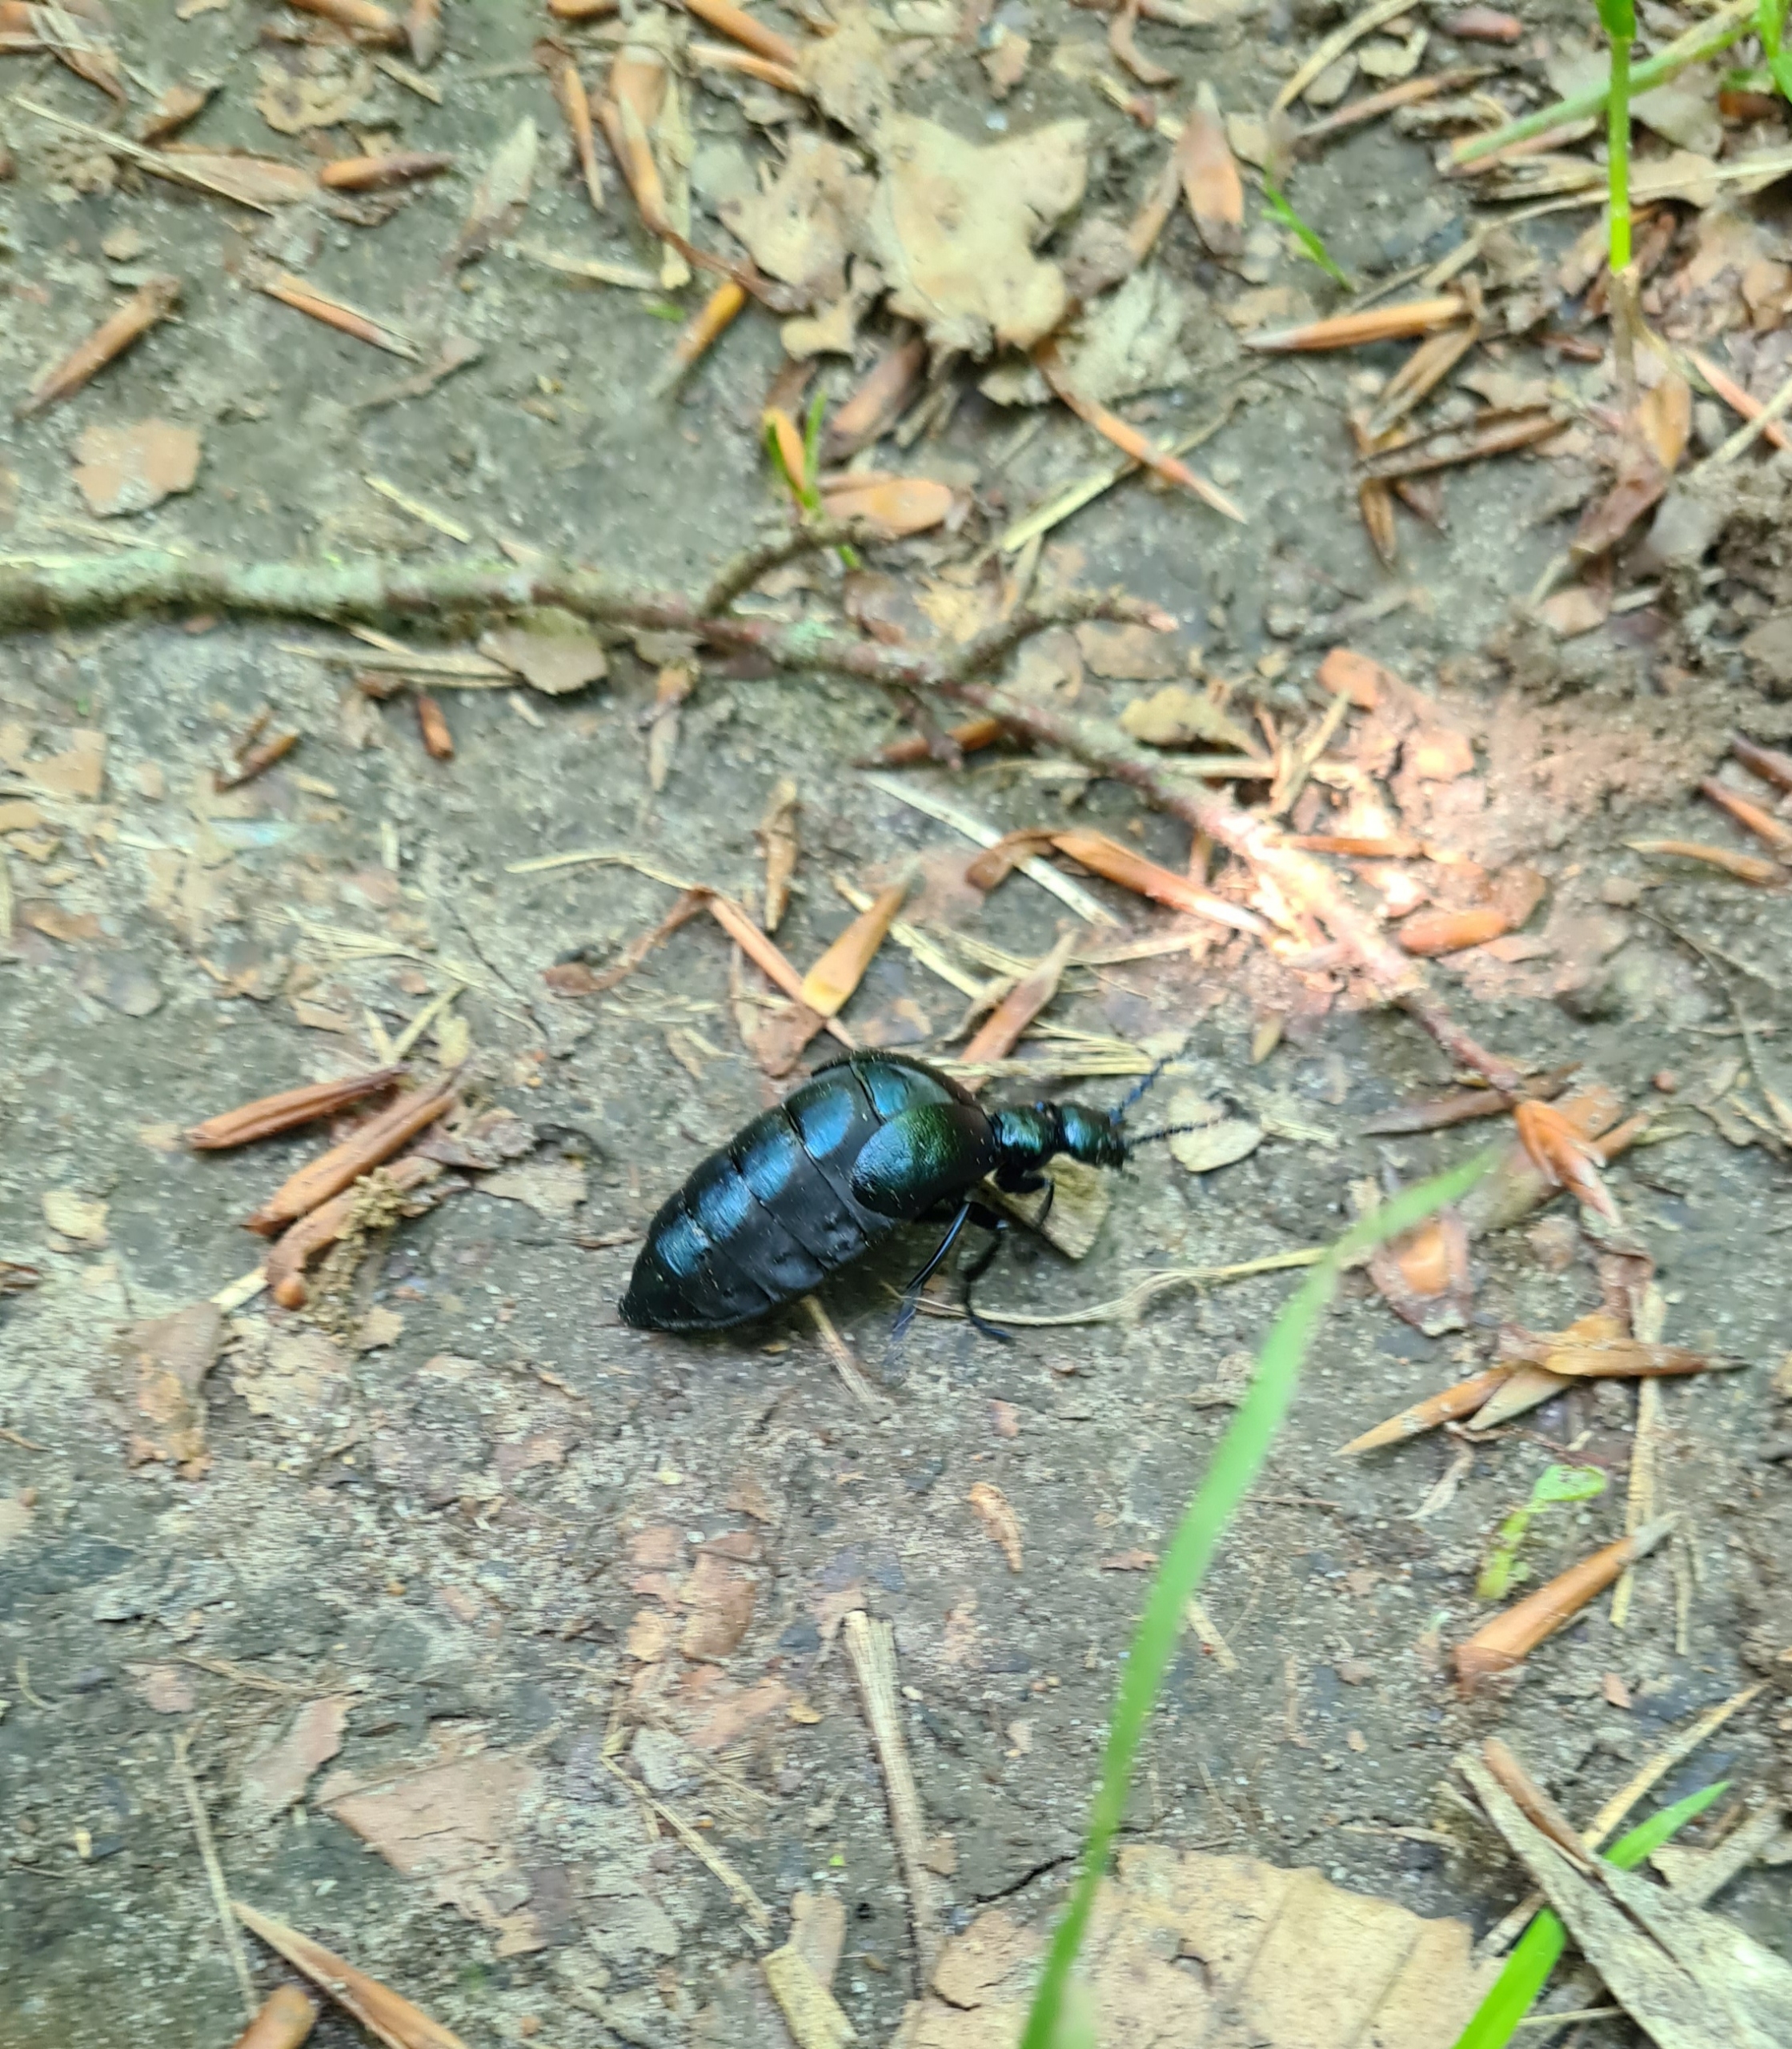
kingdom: Animalia
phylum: Arthropoda
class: Insecta
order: Coleoptera
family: Meloidae
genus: Meloe
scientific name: Meloe violaceus
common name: Blå oliebille
